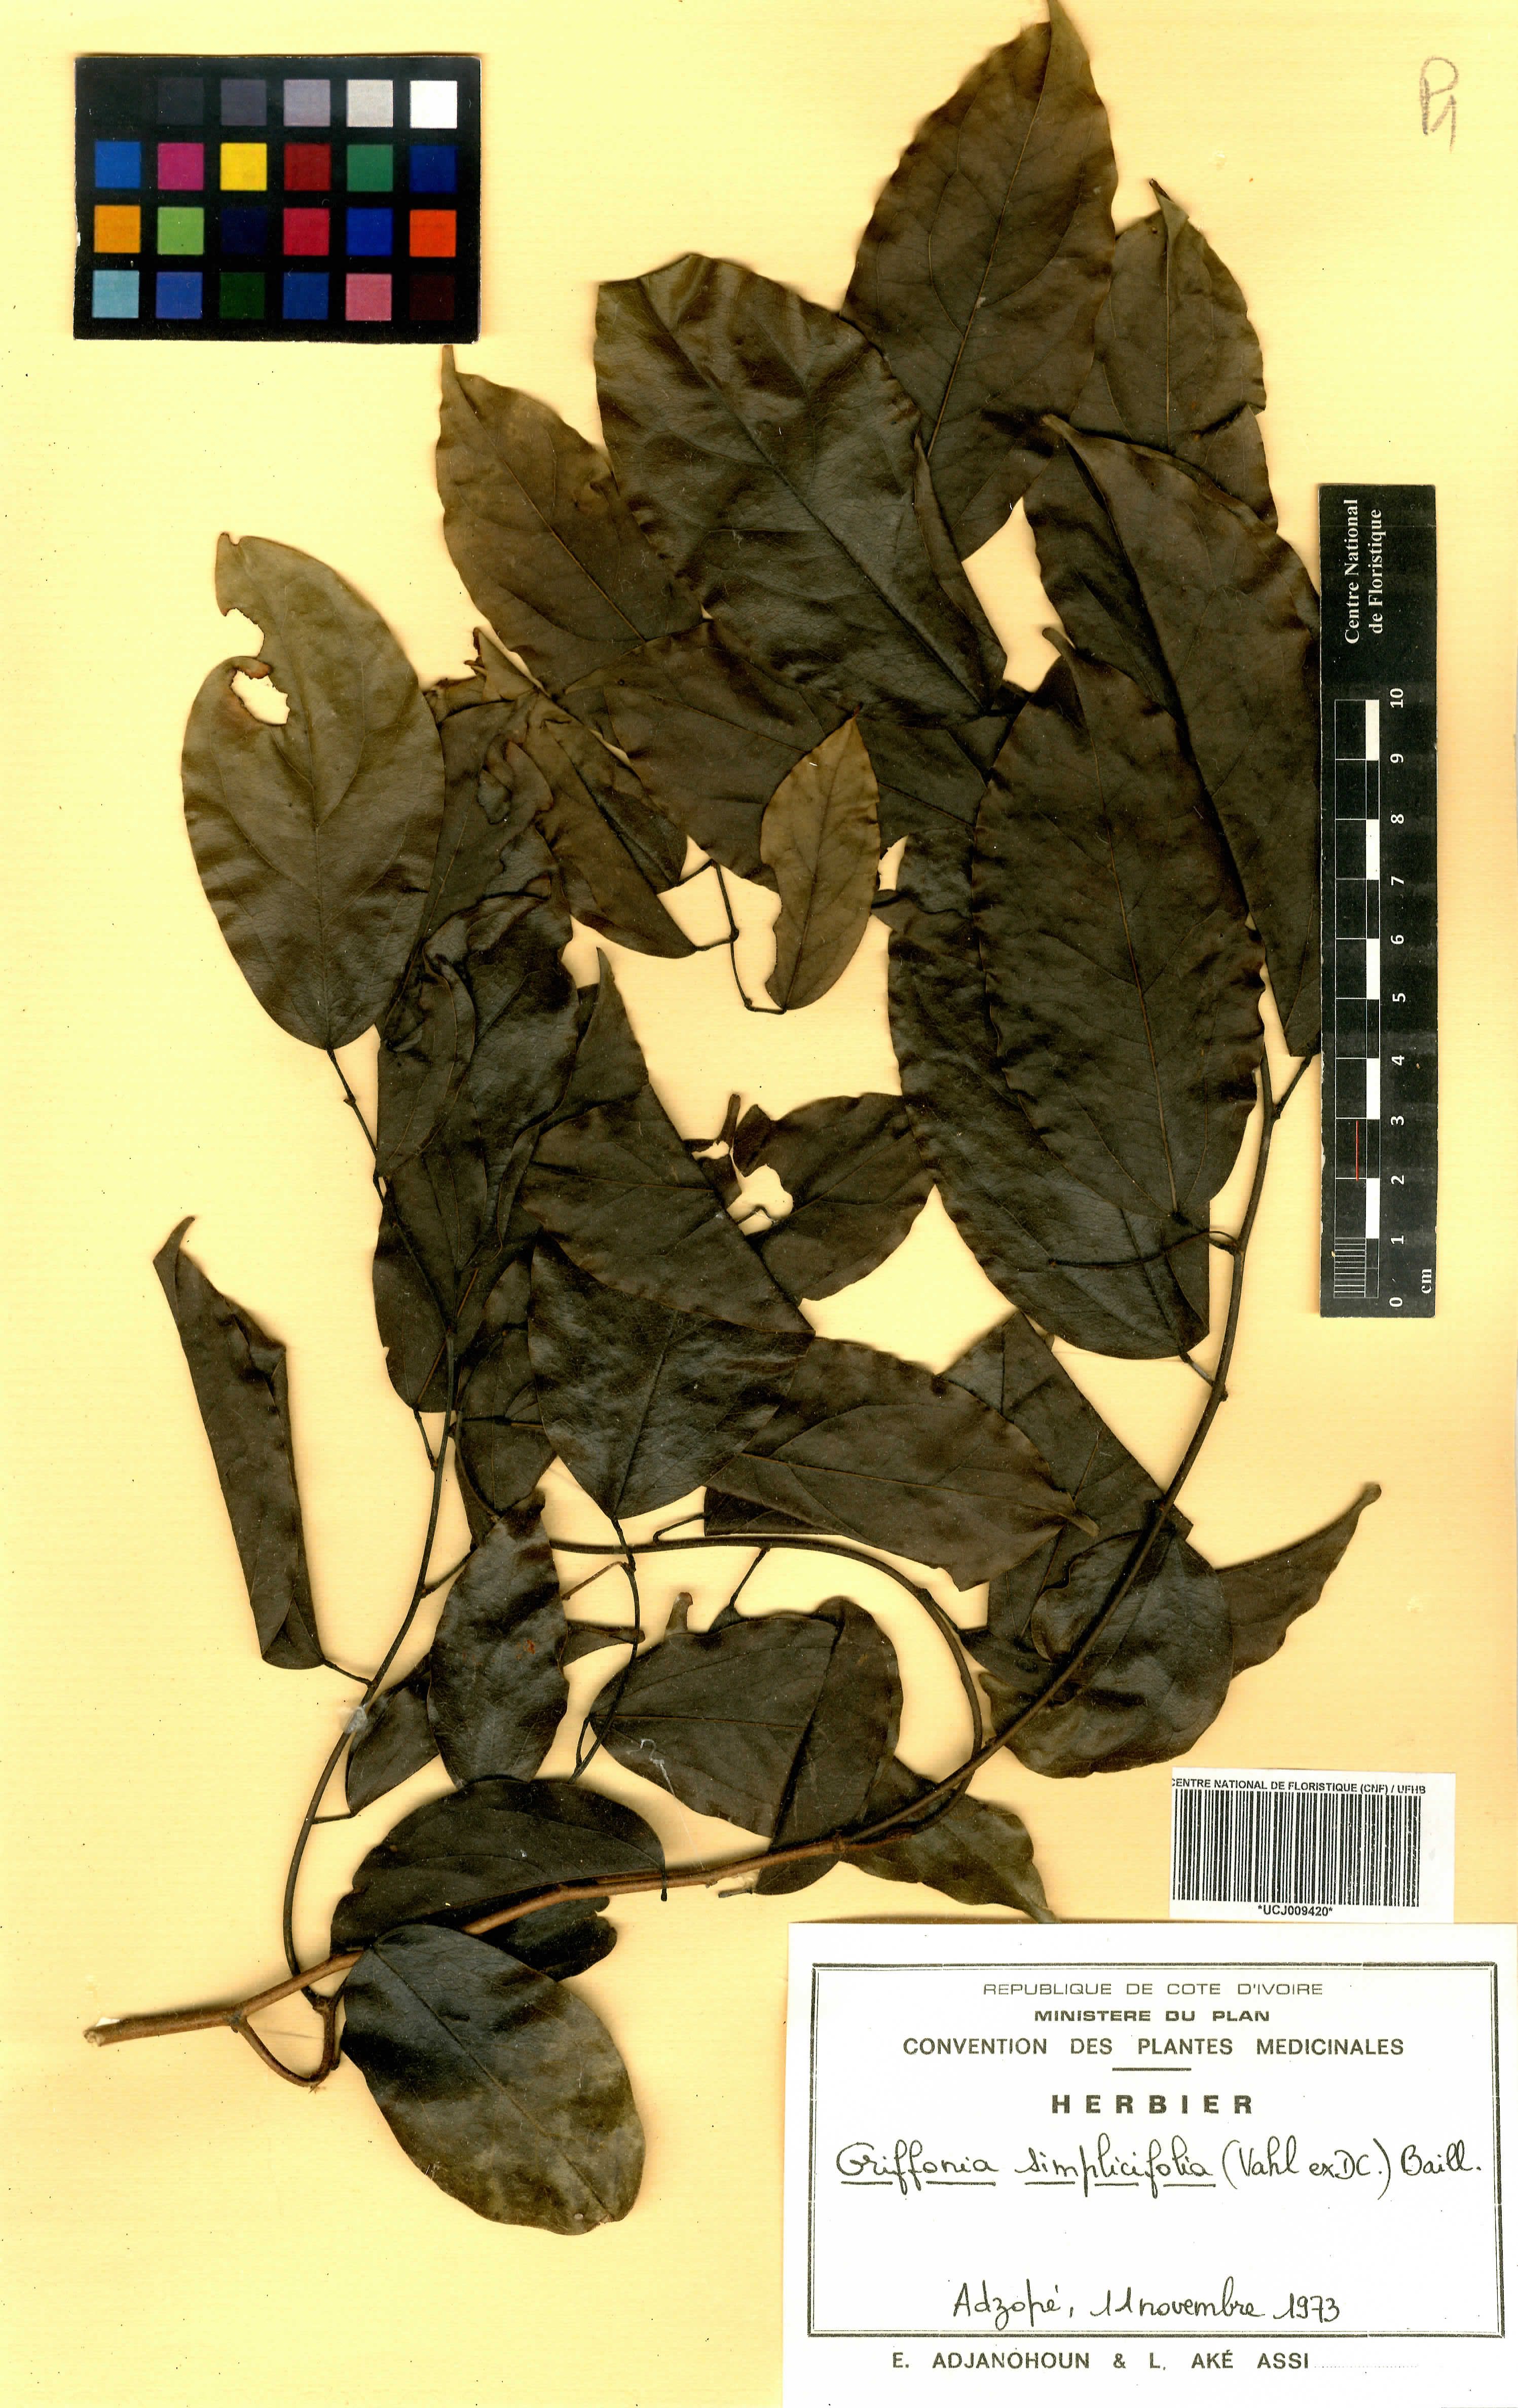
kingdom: Plantae
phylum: Tracheophyta
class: Magnoliopsida
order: Fabales
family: Fabaceae
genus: Griffonia
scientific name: Griffonia simplicifolia
